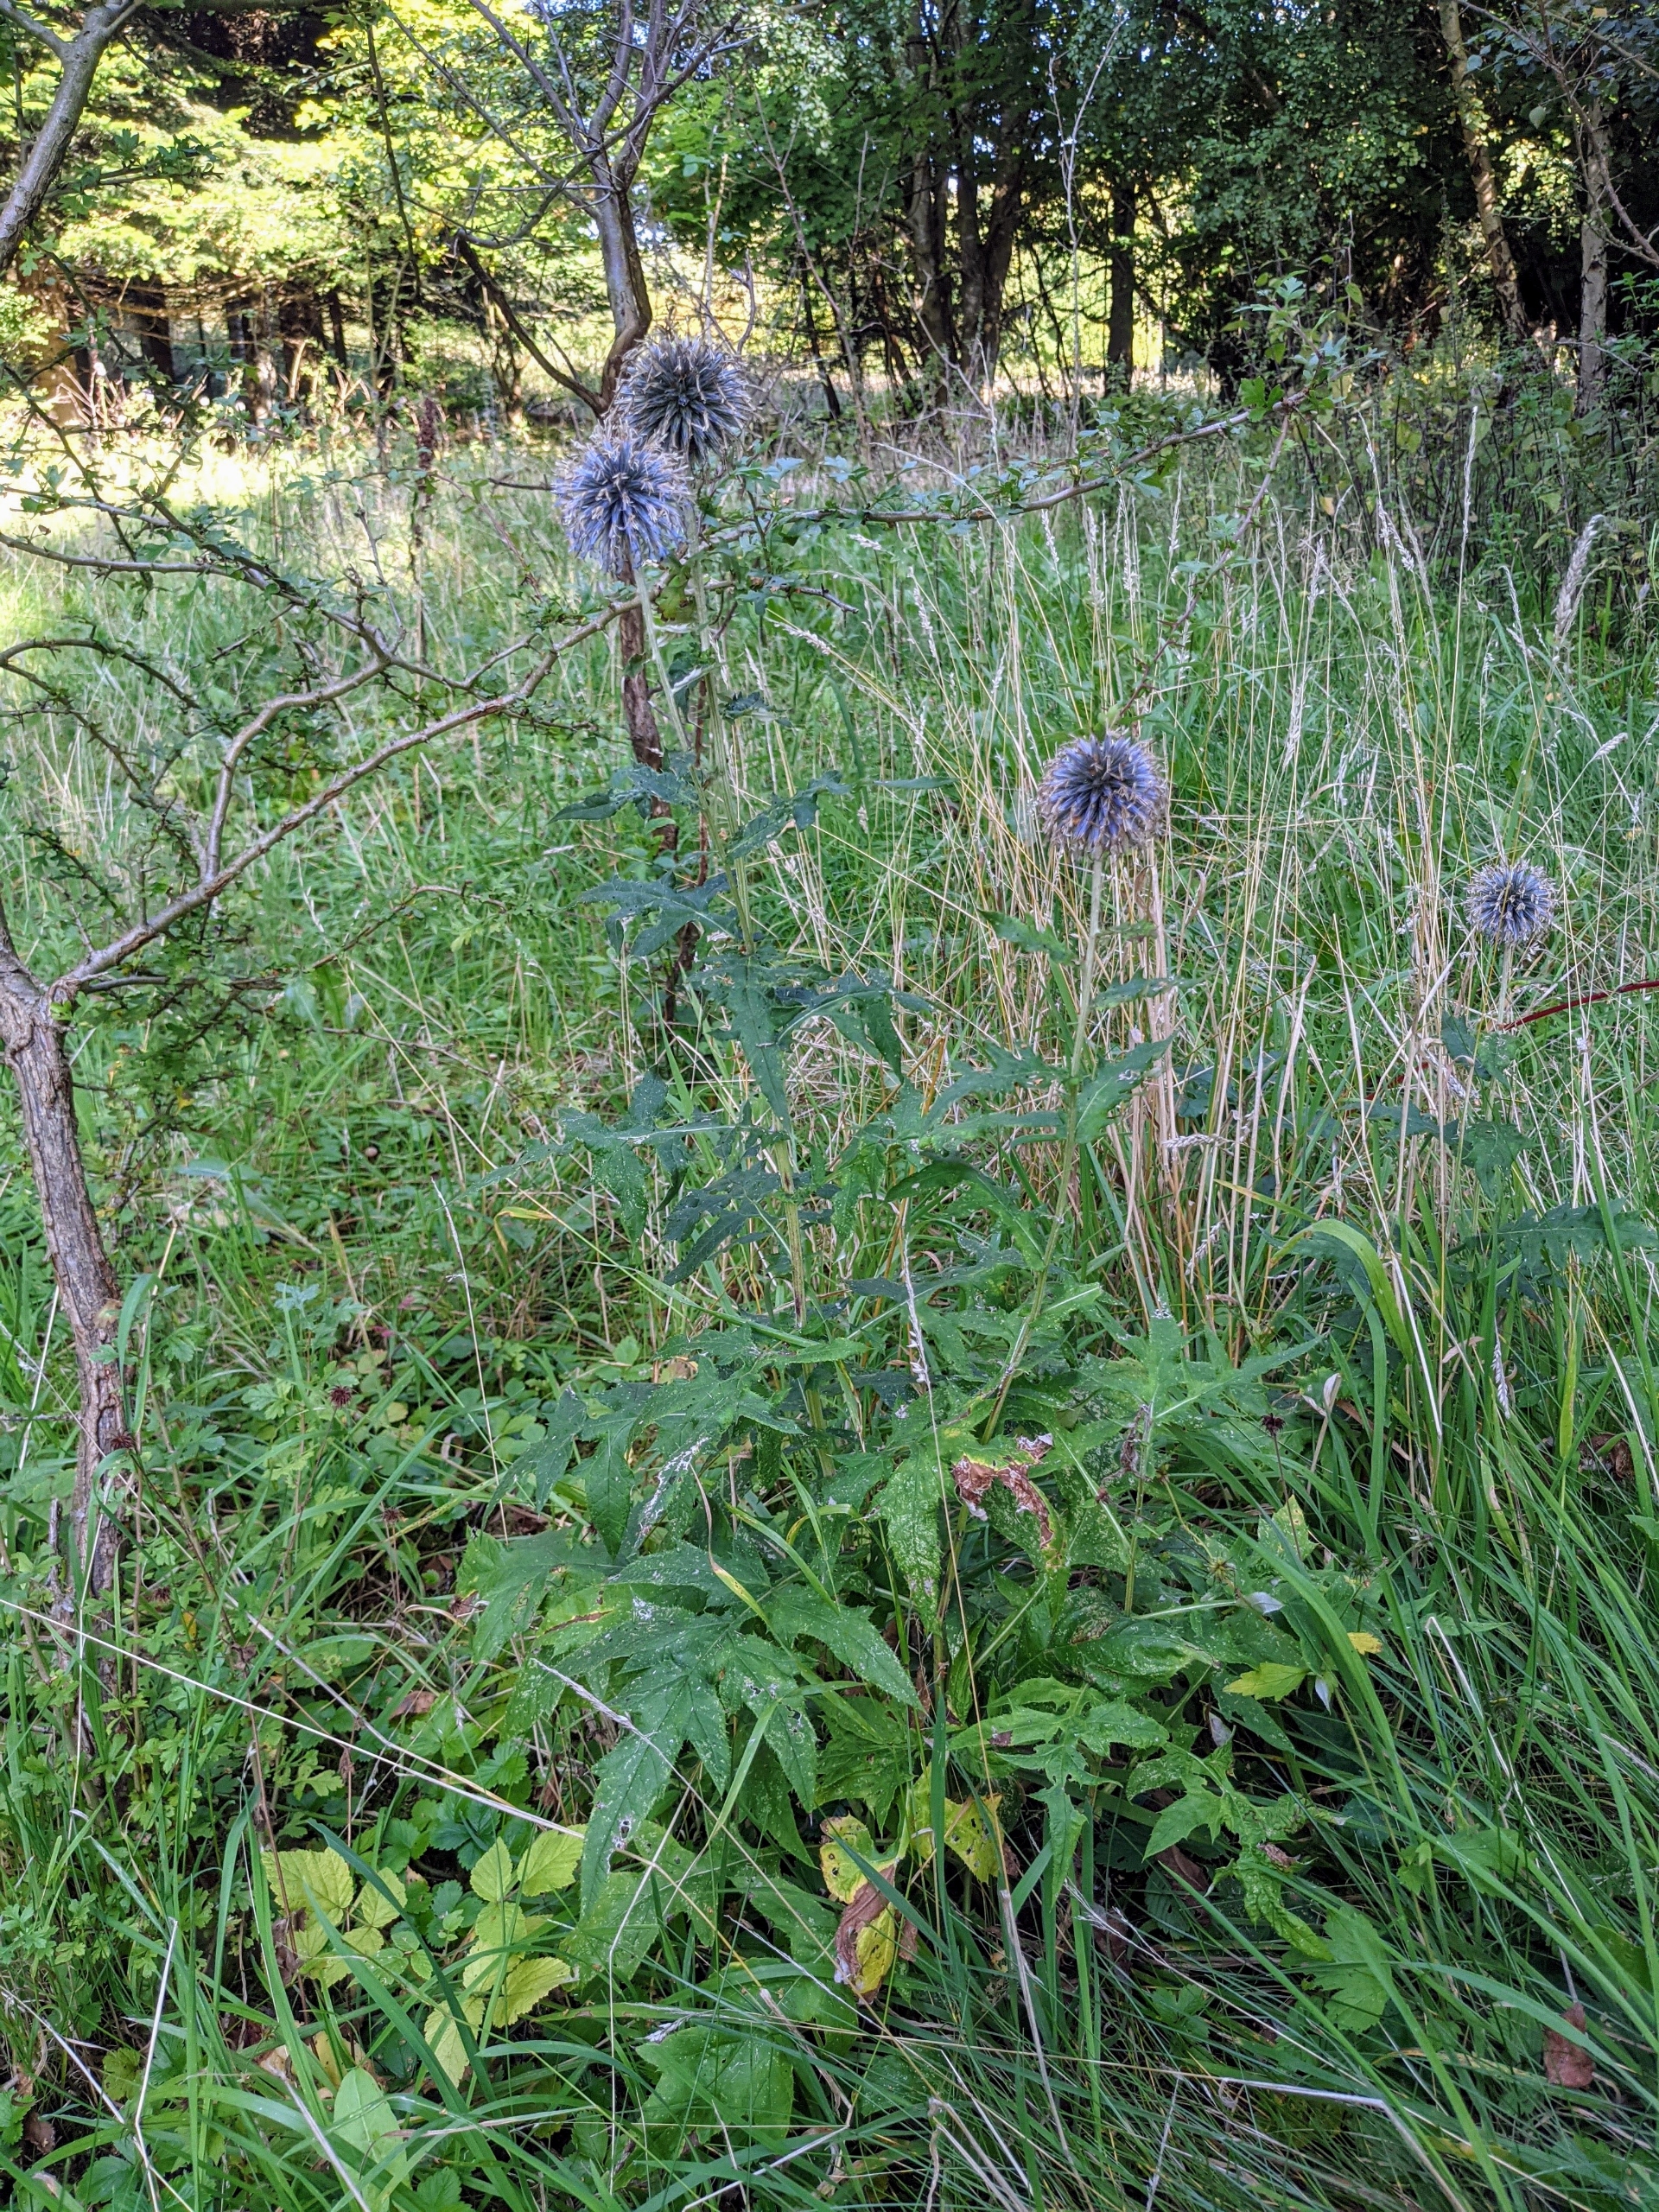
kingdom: Plantae
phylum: Tracheophyta
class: Magnoliopsida
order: Asterales
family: Asteraceae
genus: Echinops
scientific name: Echinops bannaticus
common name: Blå tidselkugle
